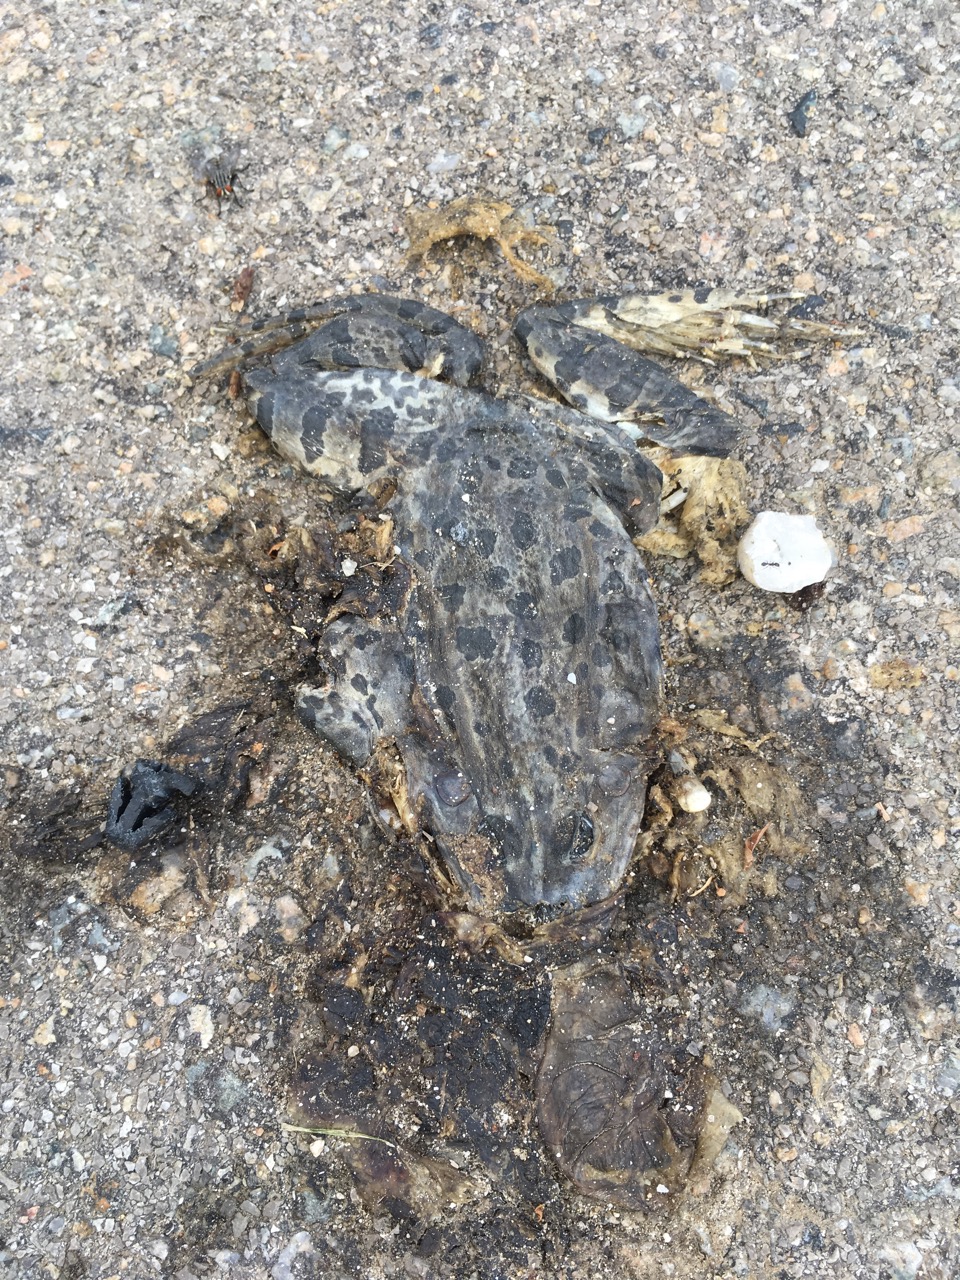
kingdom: Animalia
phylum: Chordata
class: Amphibia
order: Anura
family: Bufonidae
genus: Bufotes
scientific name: Bufotes viridis
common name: European green toad
